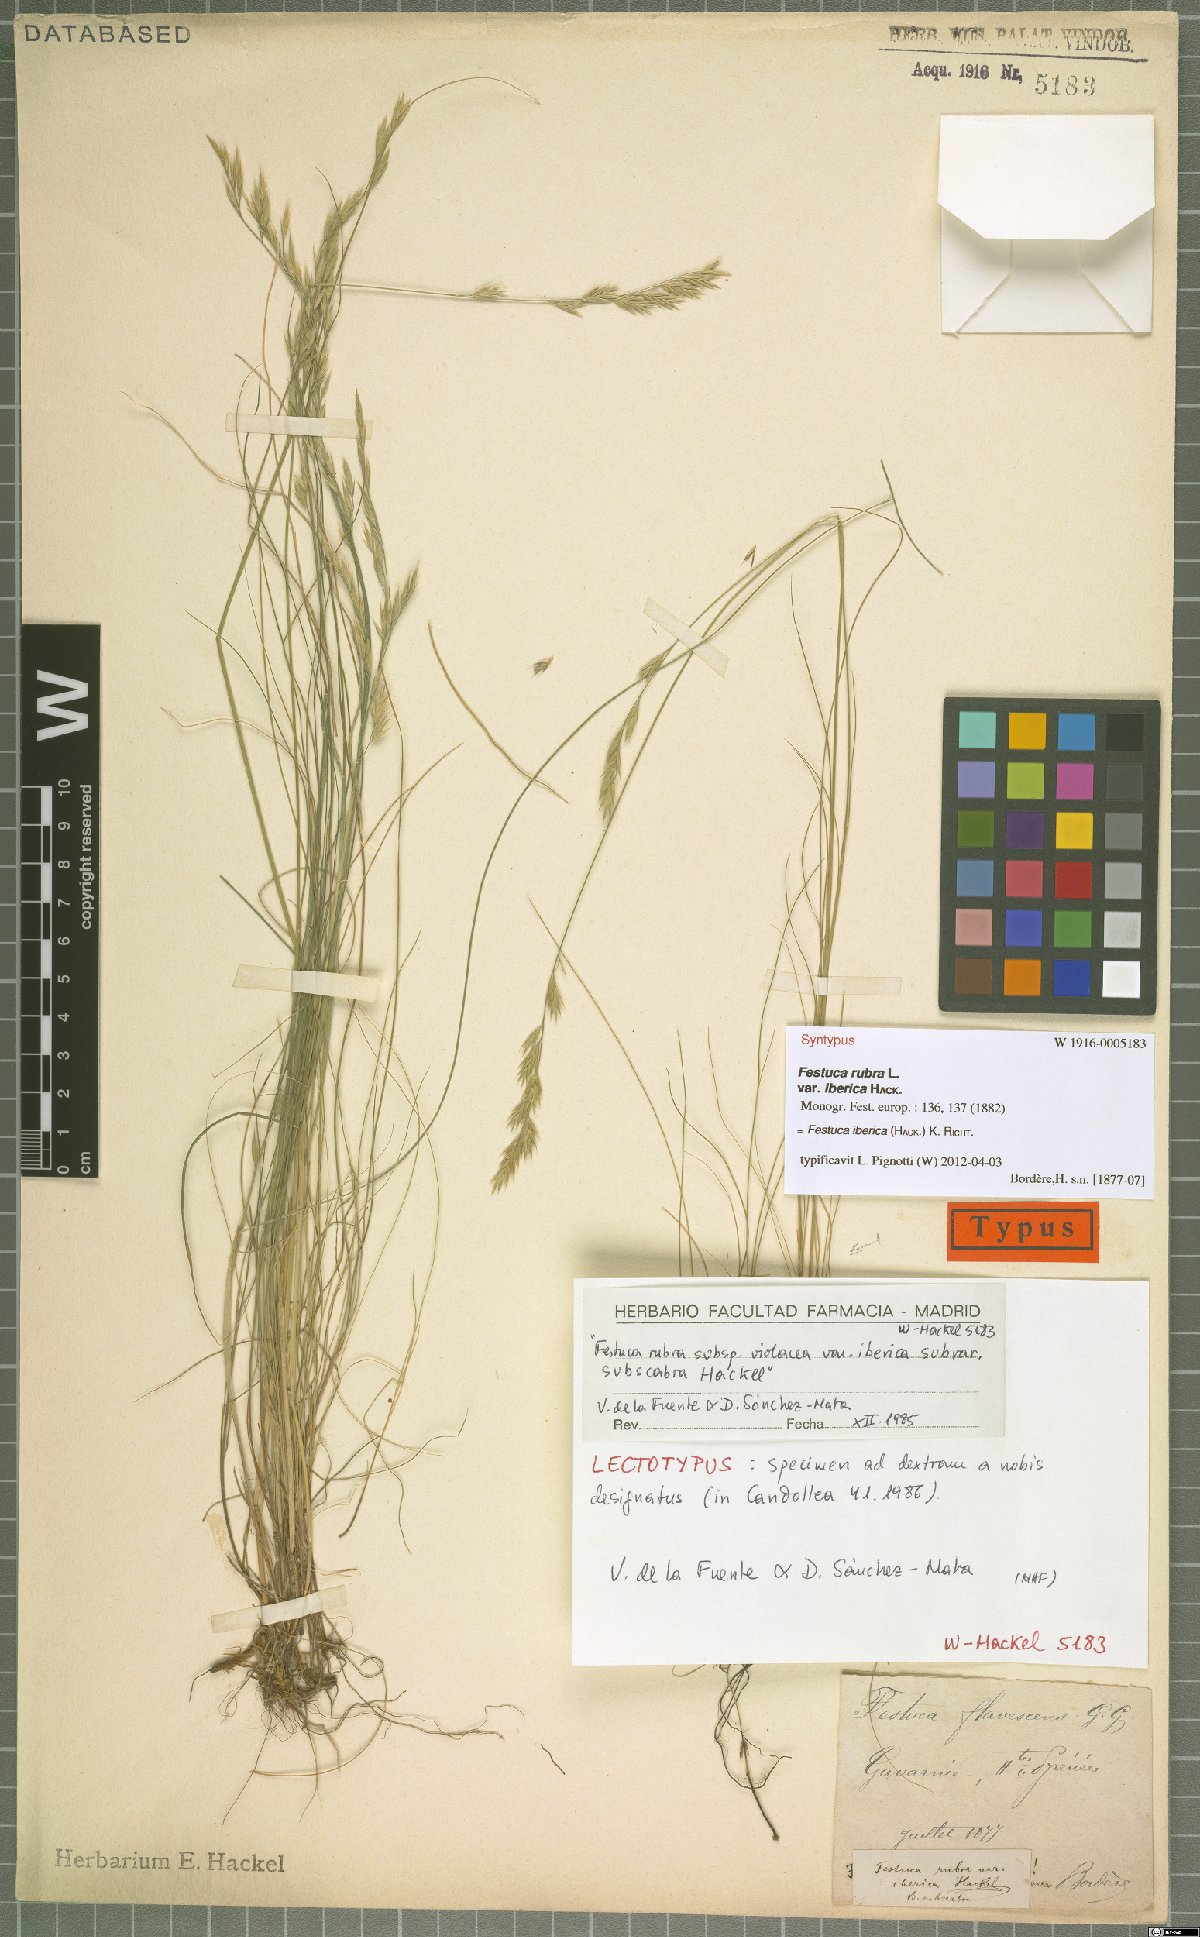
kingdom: Plantae
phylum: Tracheophyta
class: Liliopsida
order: Poales
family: Poaceae
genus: Festuca
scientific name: Festuca iberica
